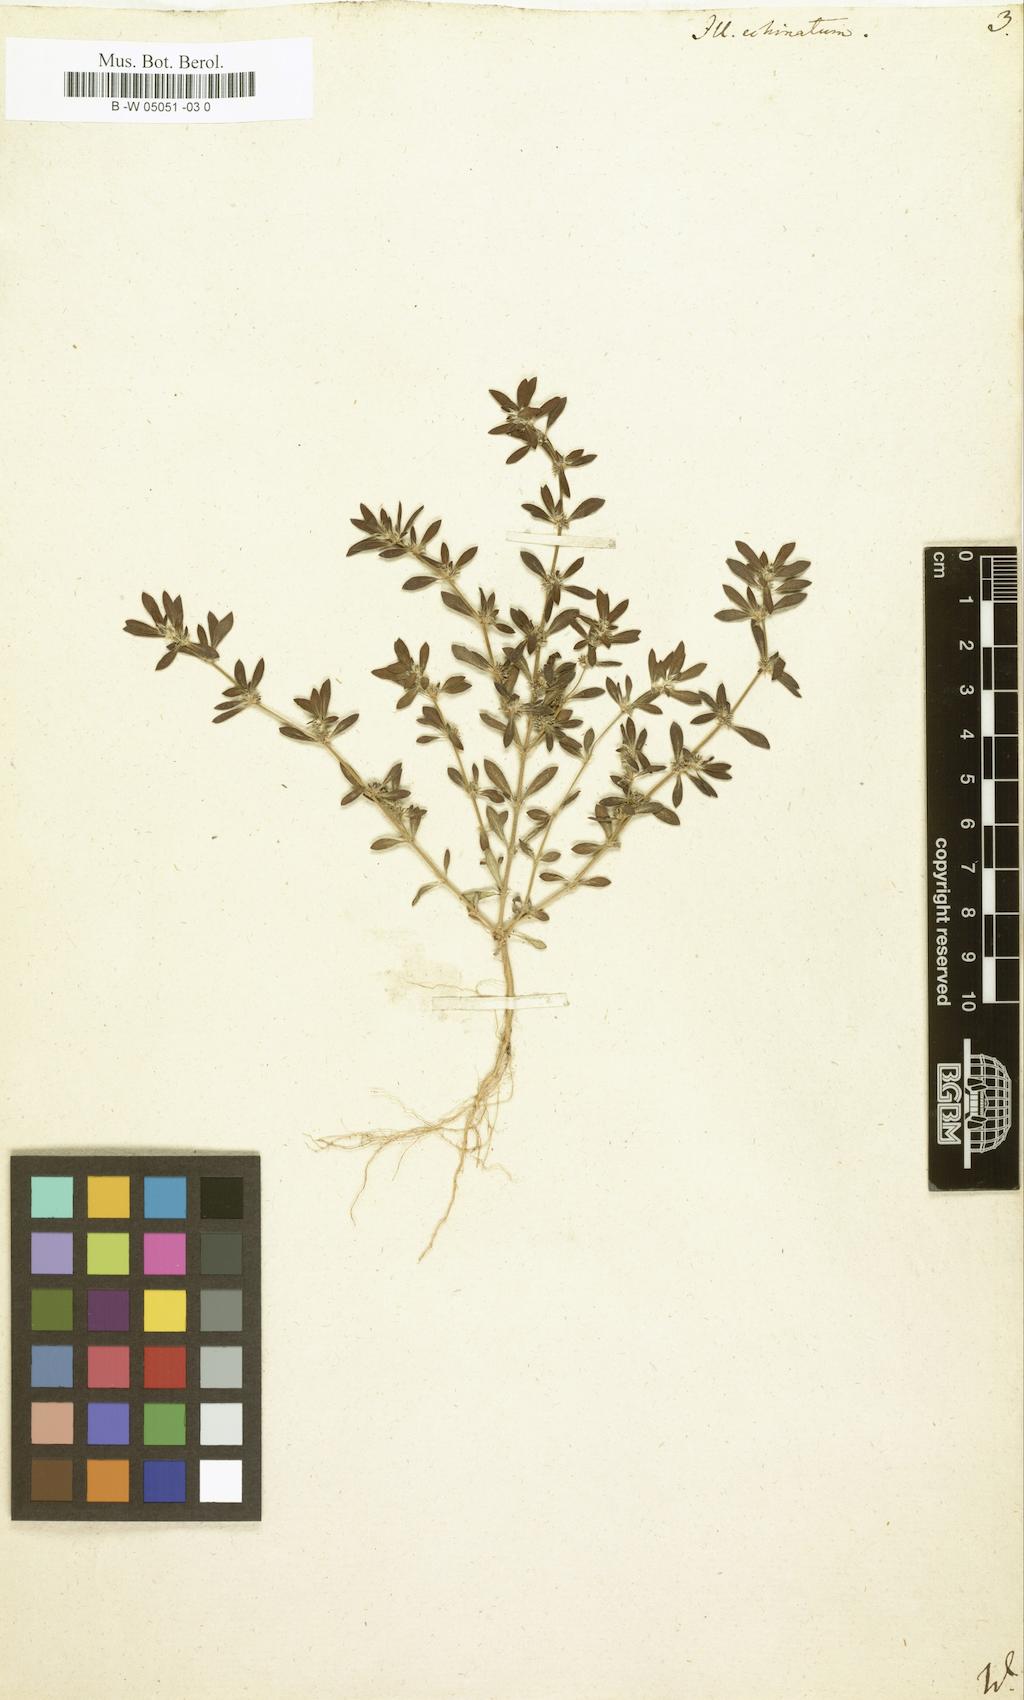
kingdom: Plantae
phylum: Tracheophyta
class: Magnoliopsida
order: Caryophyllales
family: Caryophyllaceae
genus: Paronychia
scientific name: Paronychia echinulata
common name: Eurasian nailwort
